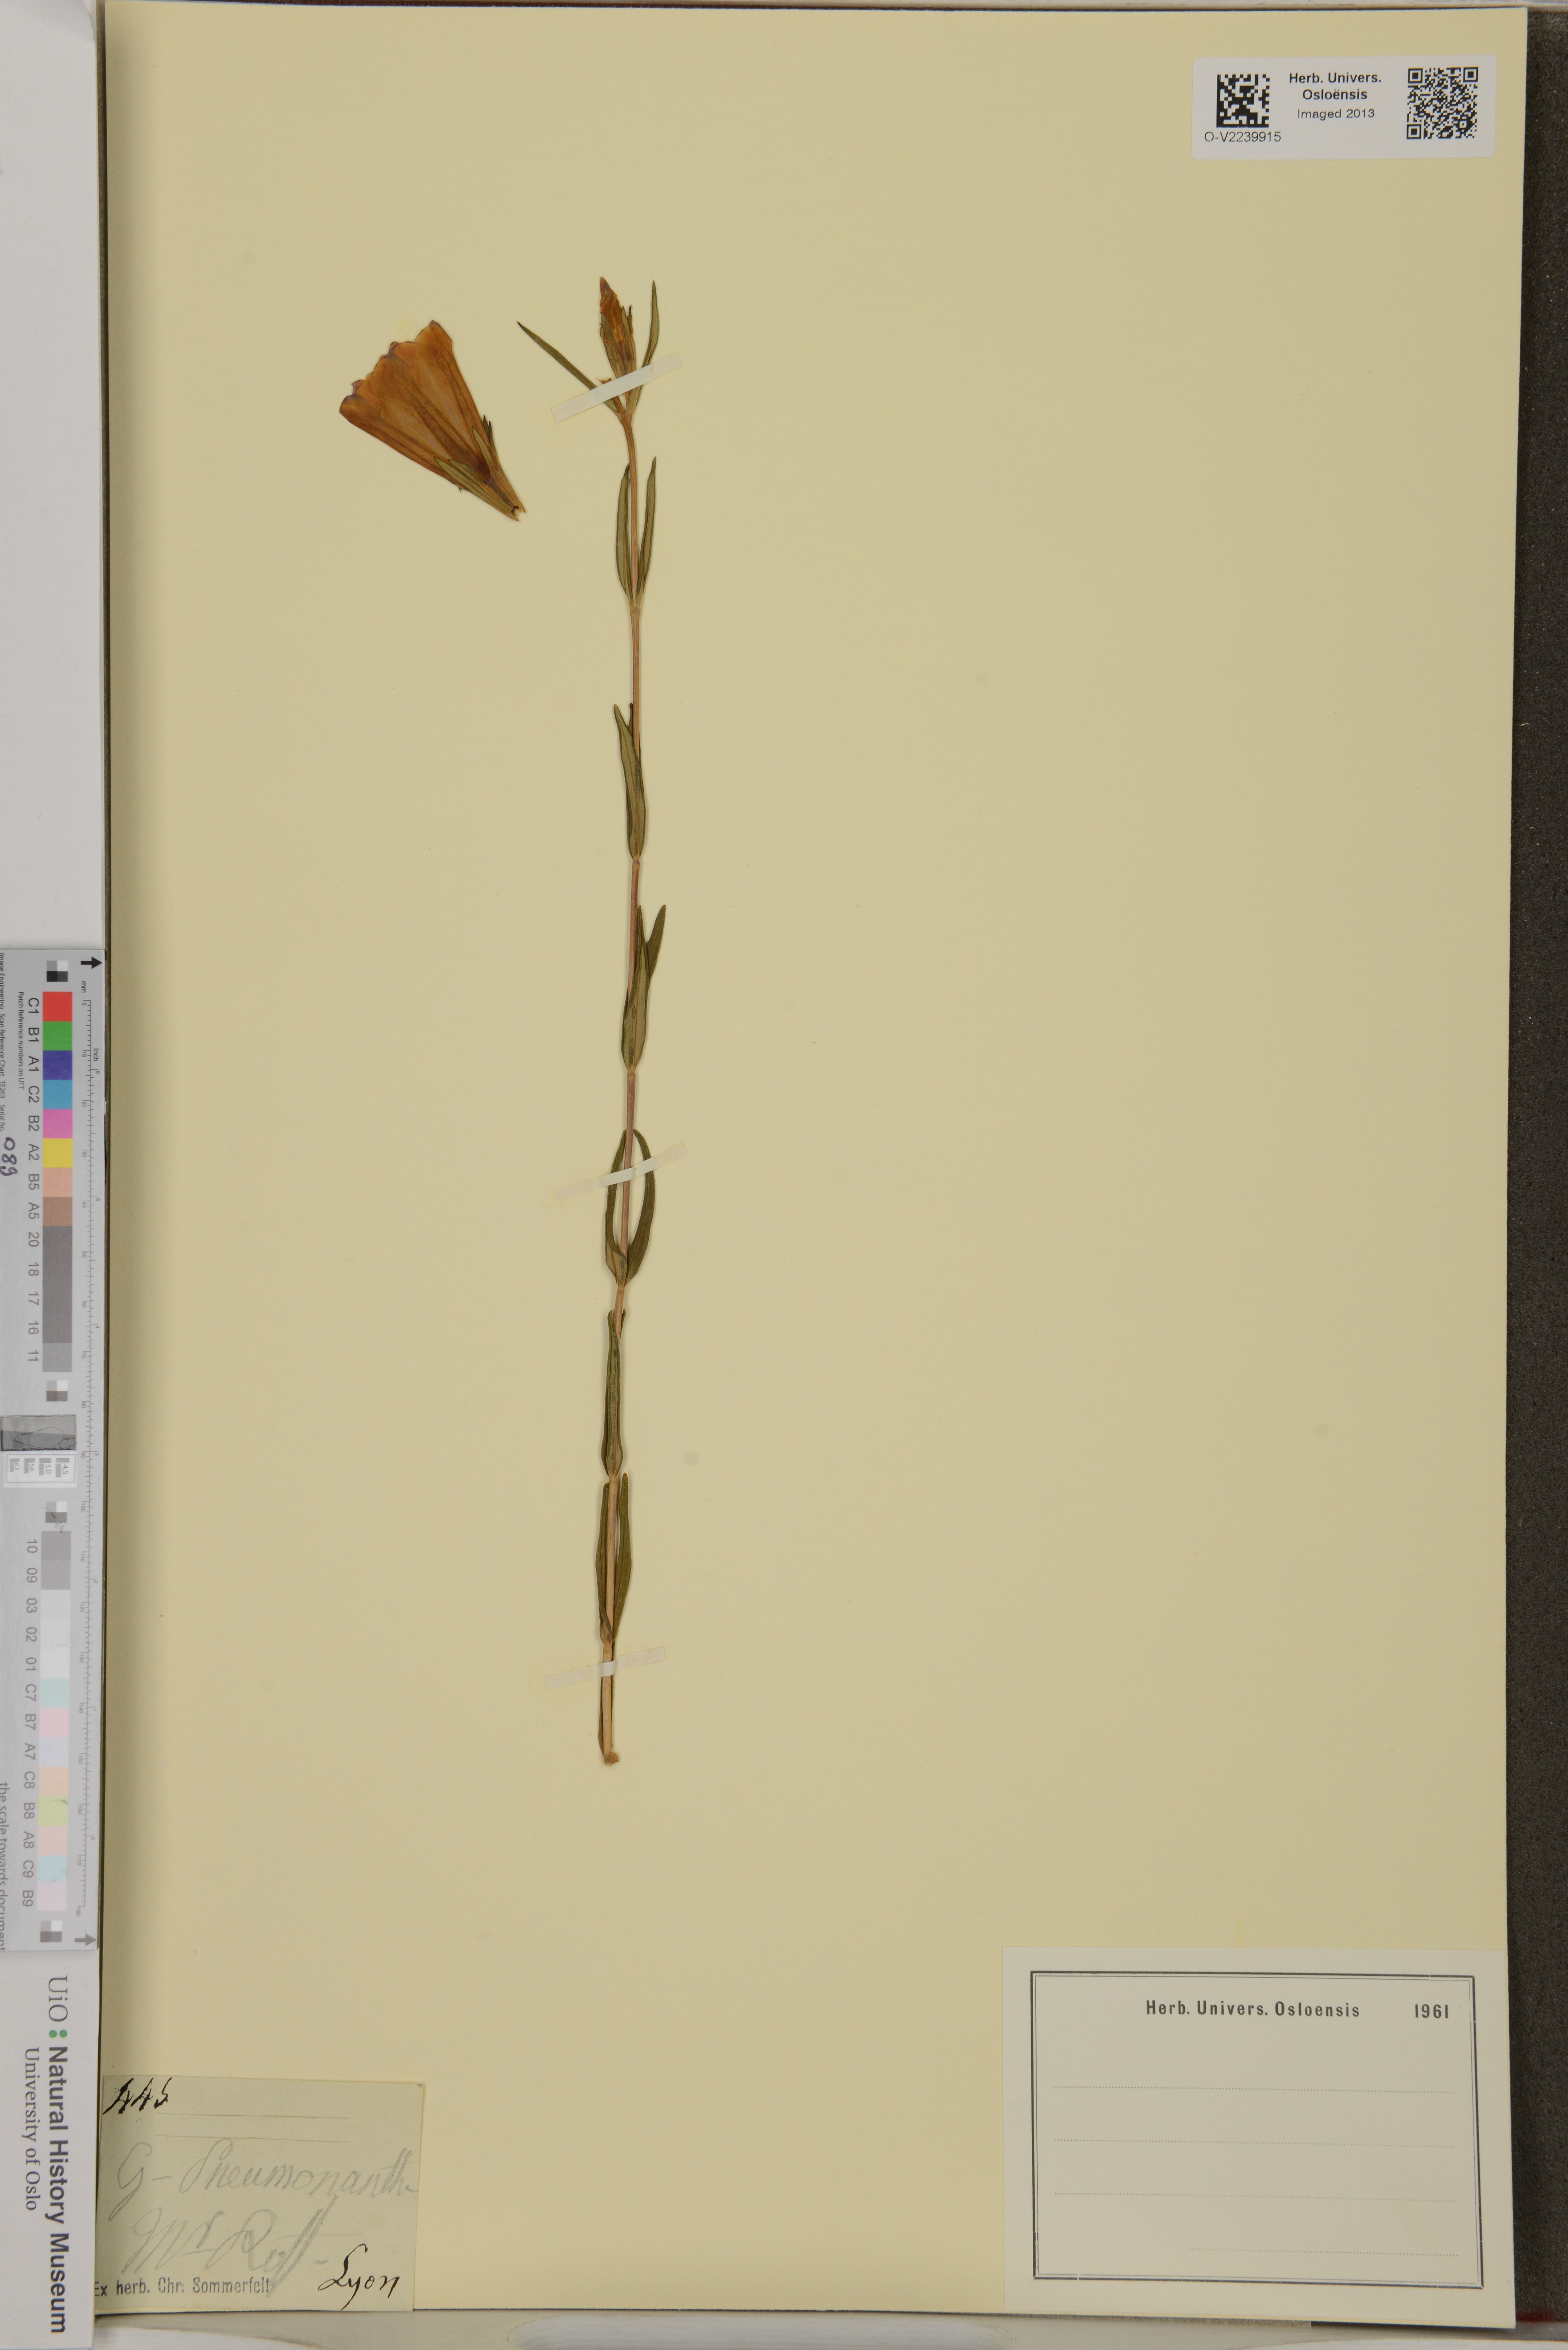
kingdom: Plantae
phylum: Tracheophyta
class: Magnoliopsida
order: Gentianales
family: Gentianaceae
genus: Gentiana
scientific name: Gentiana pneumonanthe
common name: Marsh gentian
